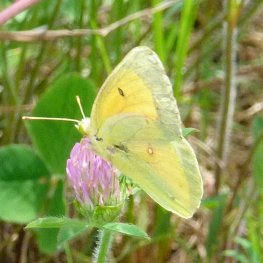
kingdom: Animalia
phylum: Arthropoda
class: Insecta
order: Lepidoptera
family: Pieridae
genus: Colias
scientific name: Colias eurytheme
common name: Orange Sulphur
